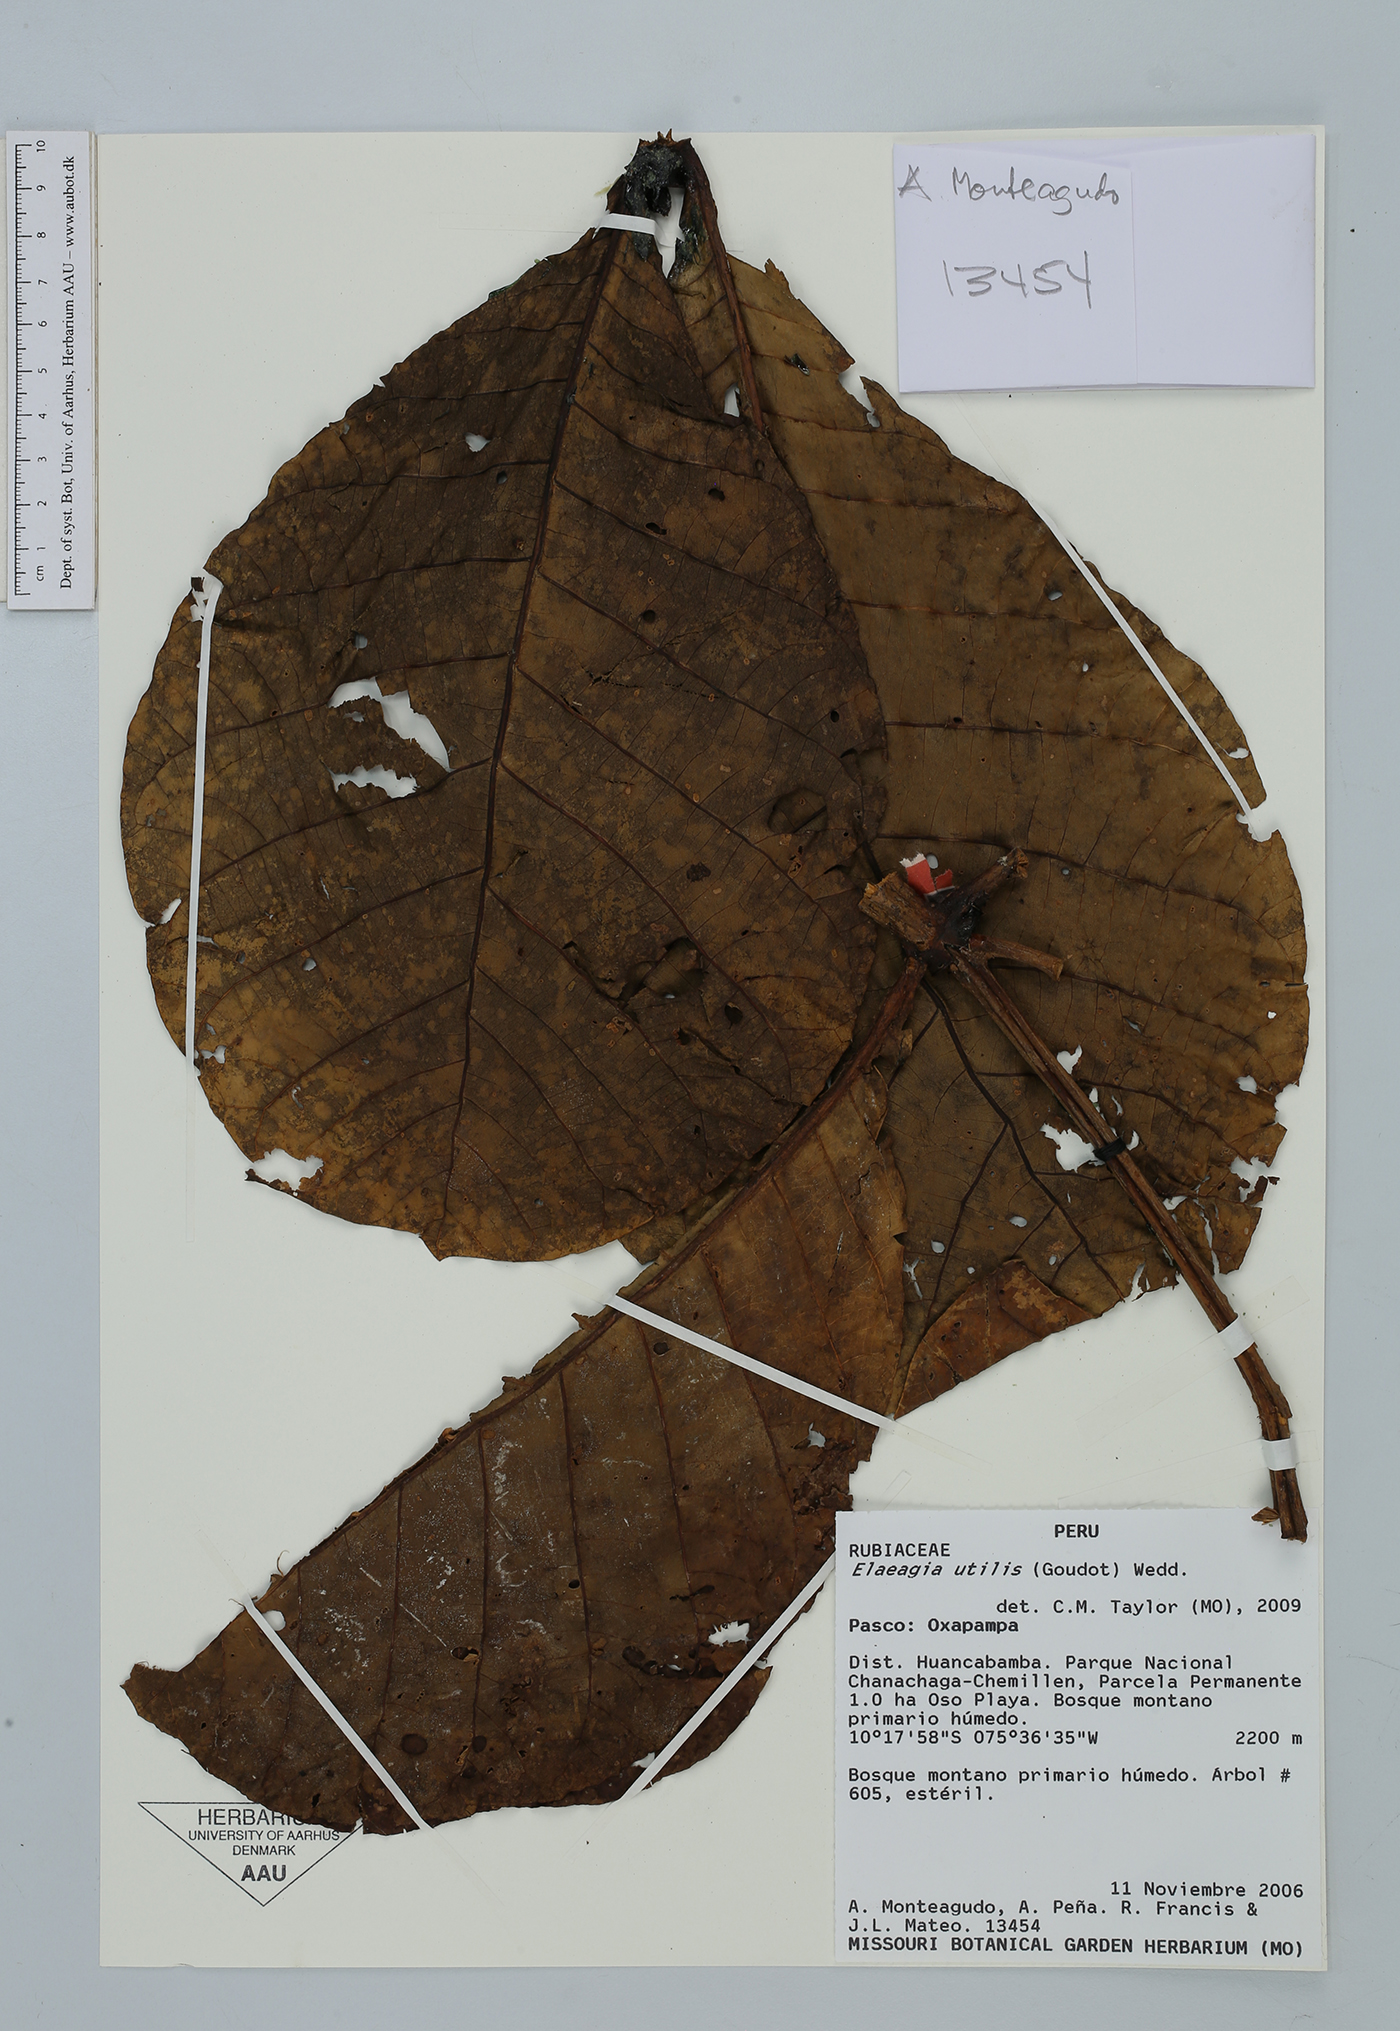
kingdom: Plantae
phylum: Tracheophyta
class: Magnoliopsida
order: Gentianales
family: Rubiaceae
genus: Elaeagia
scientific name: Elaeagia utilis
